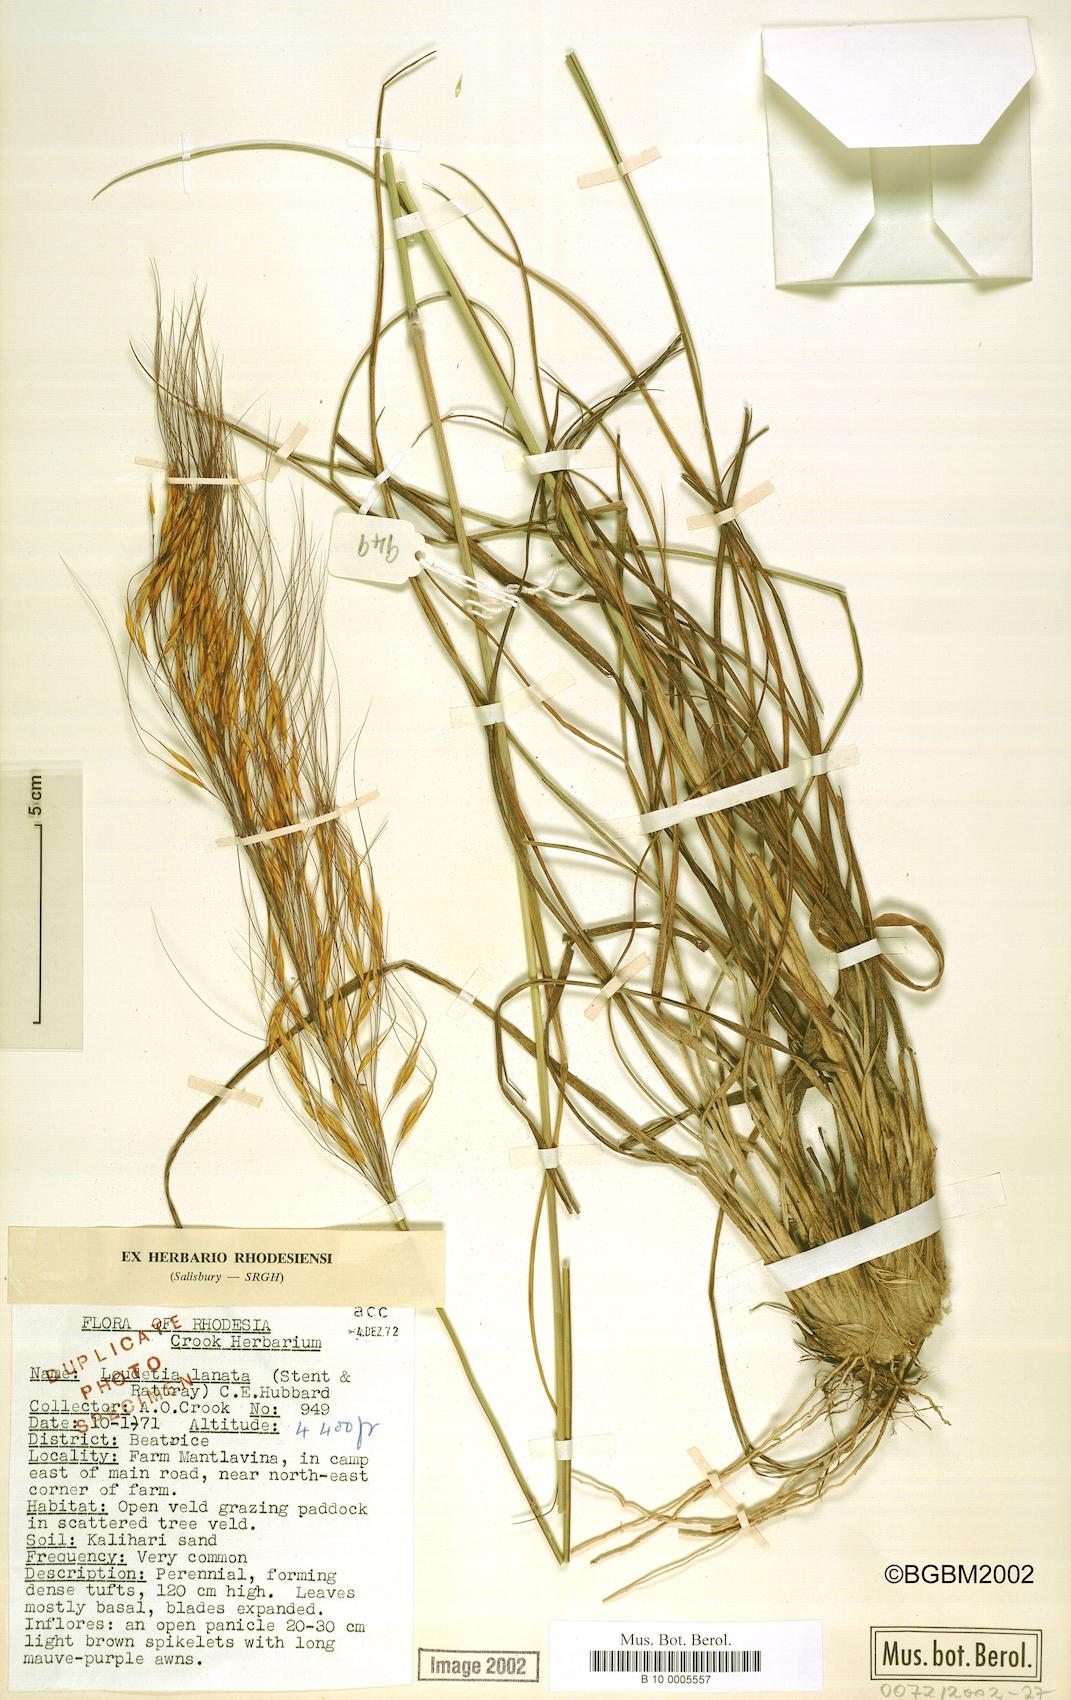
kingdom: Plantae
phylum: Tracheophyta
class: Liliopsida
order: Poales
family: Poaceae
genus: Loudetia
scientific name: Loudetia lanata
